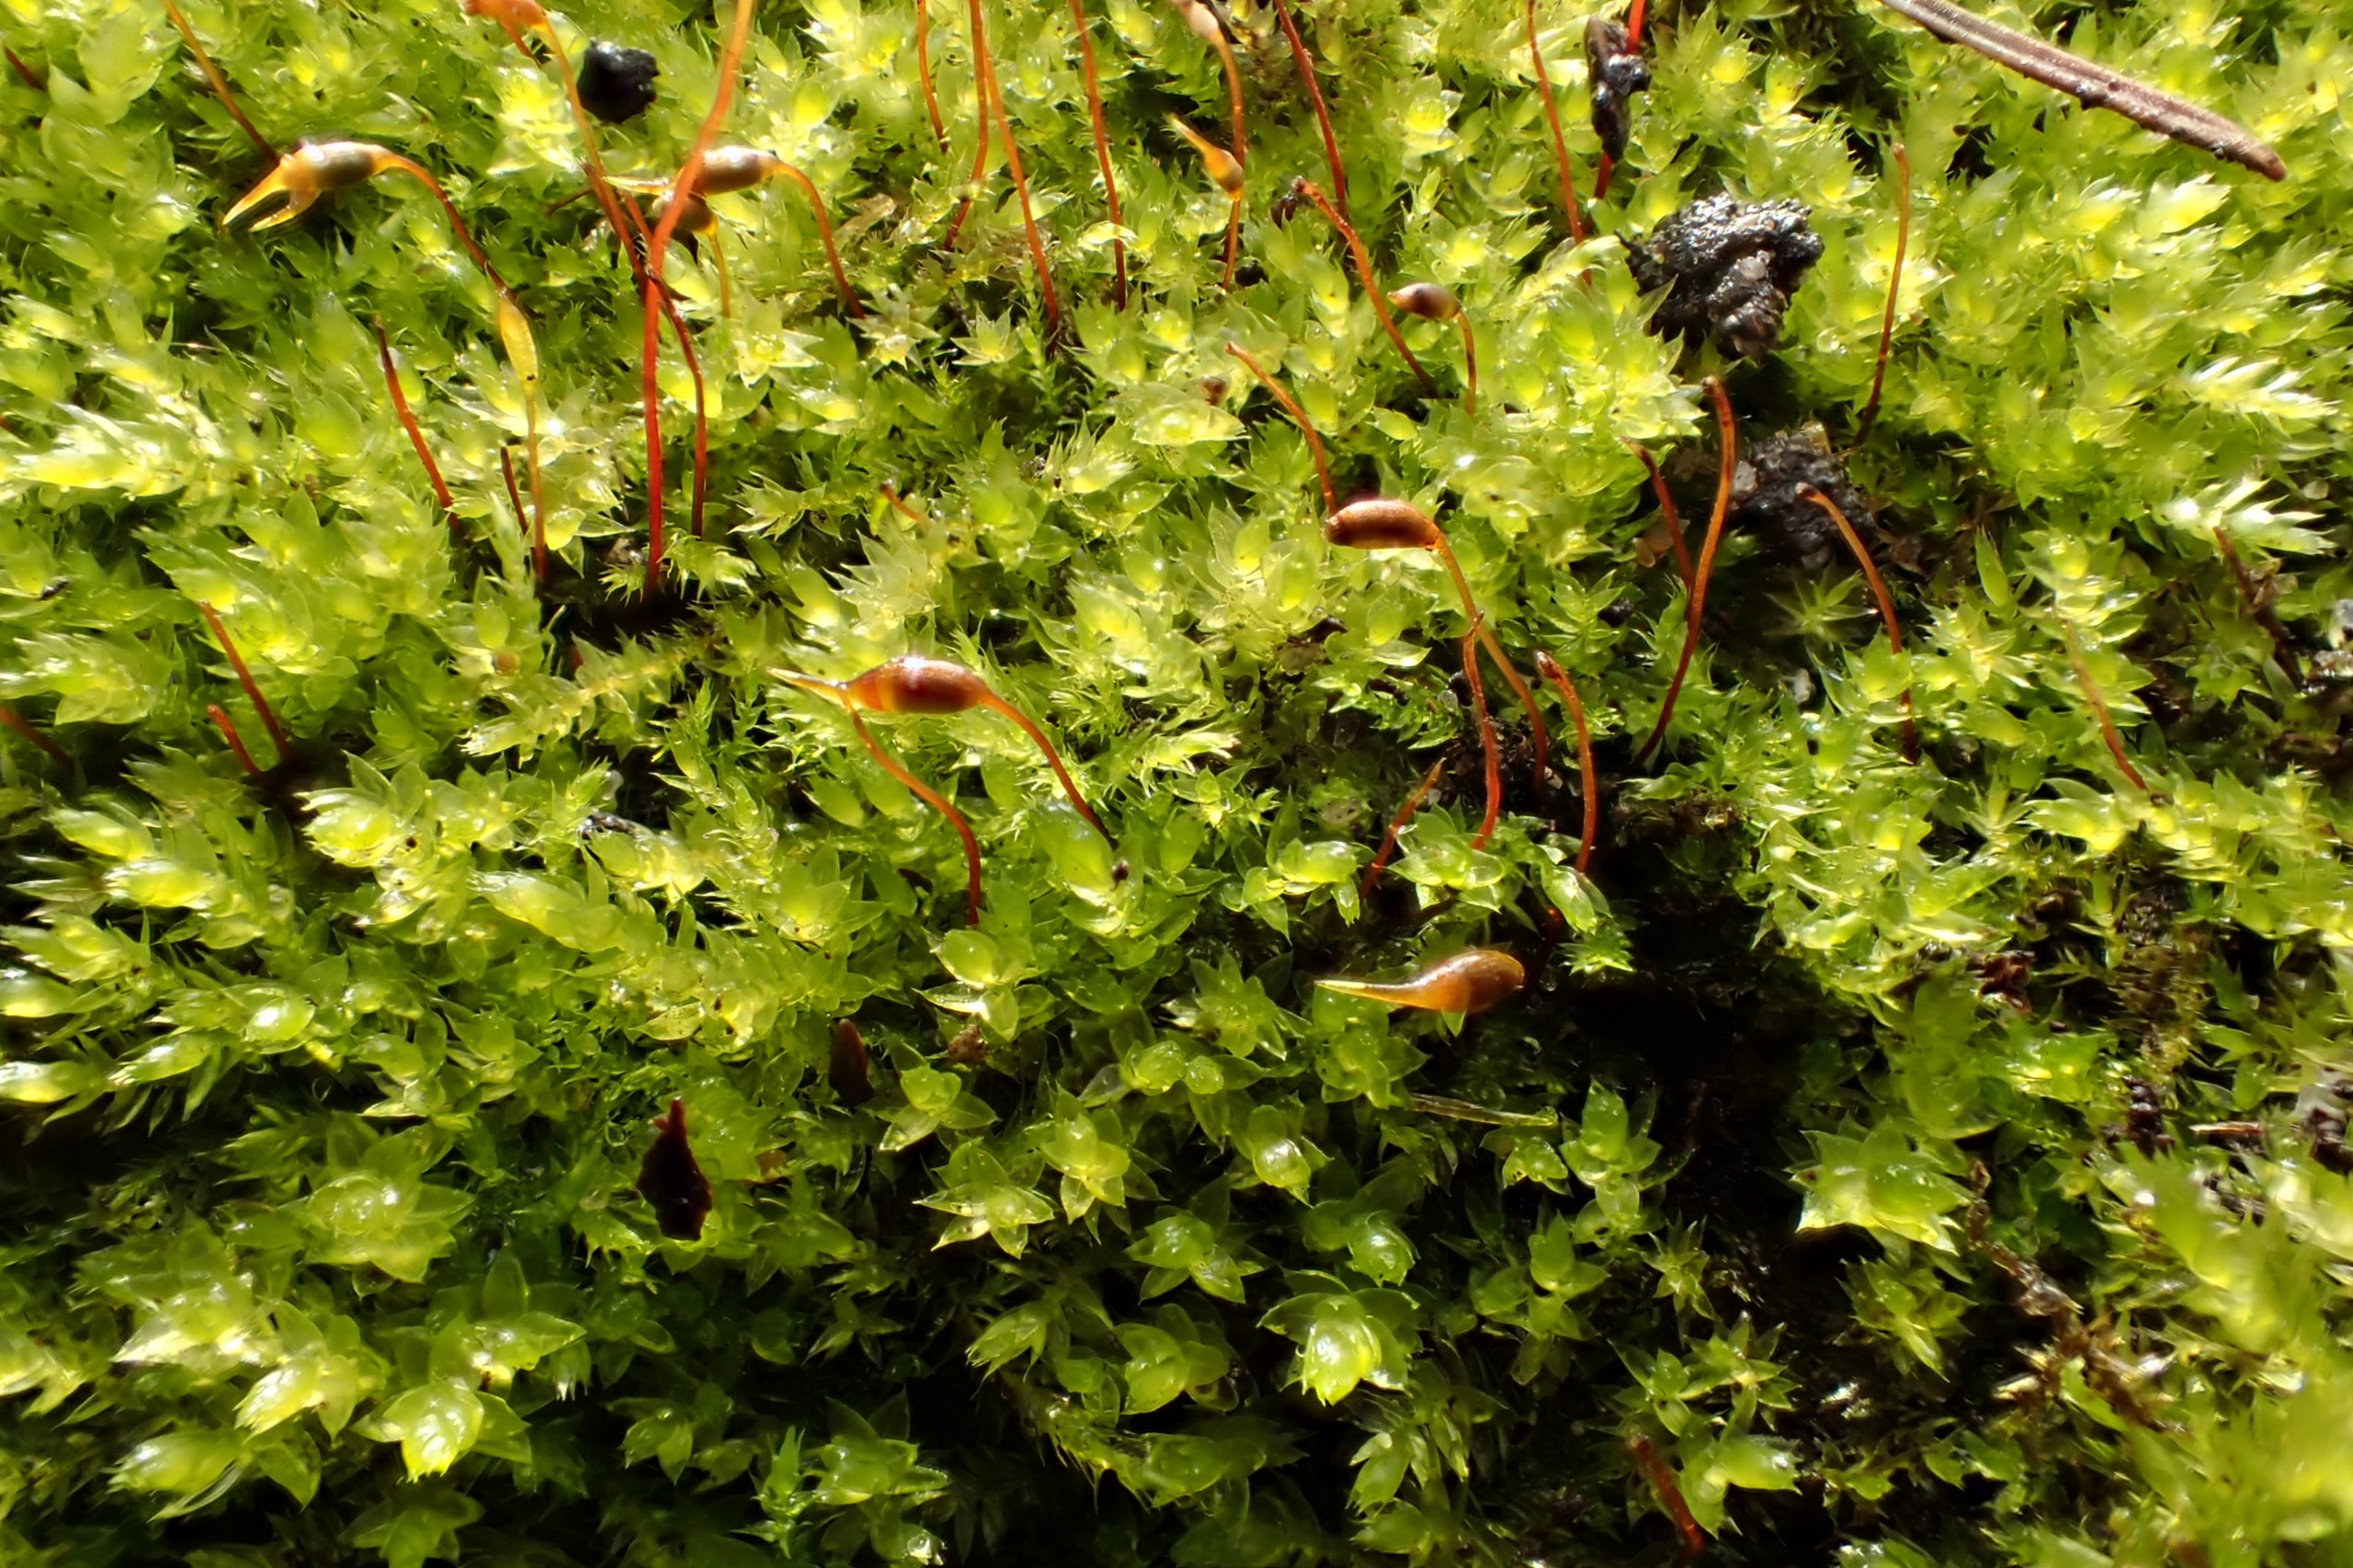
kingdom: Plantae
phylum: Bryophyta
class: Bryopsida
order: Hypnales
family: Brachytheciaceae
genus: Rhynchostegium
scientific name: Rhynchostegium confertum
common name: Skov-langnæb
